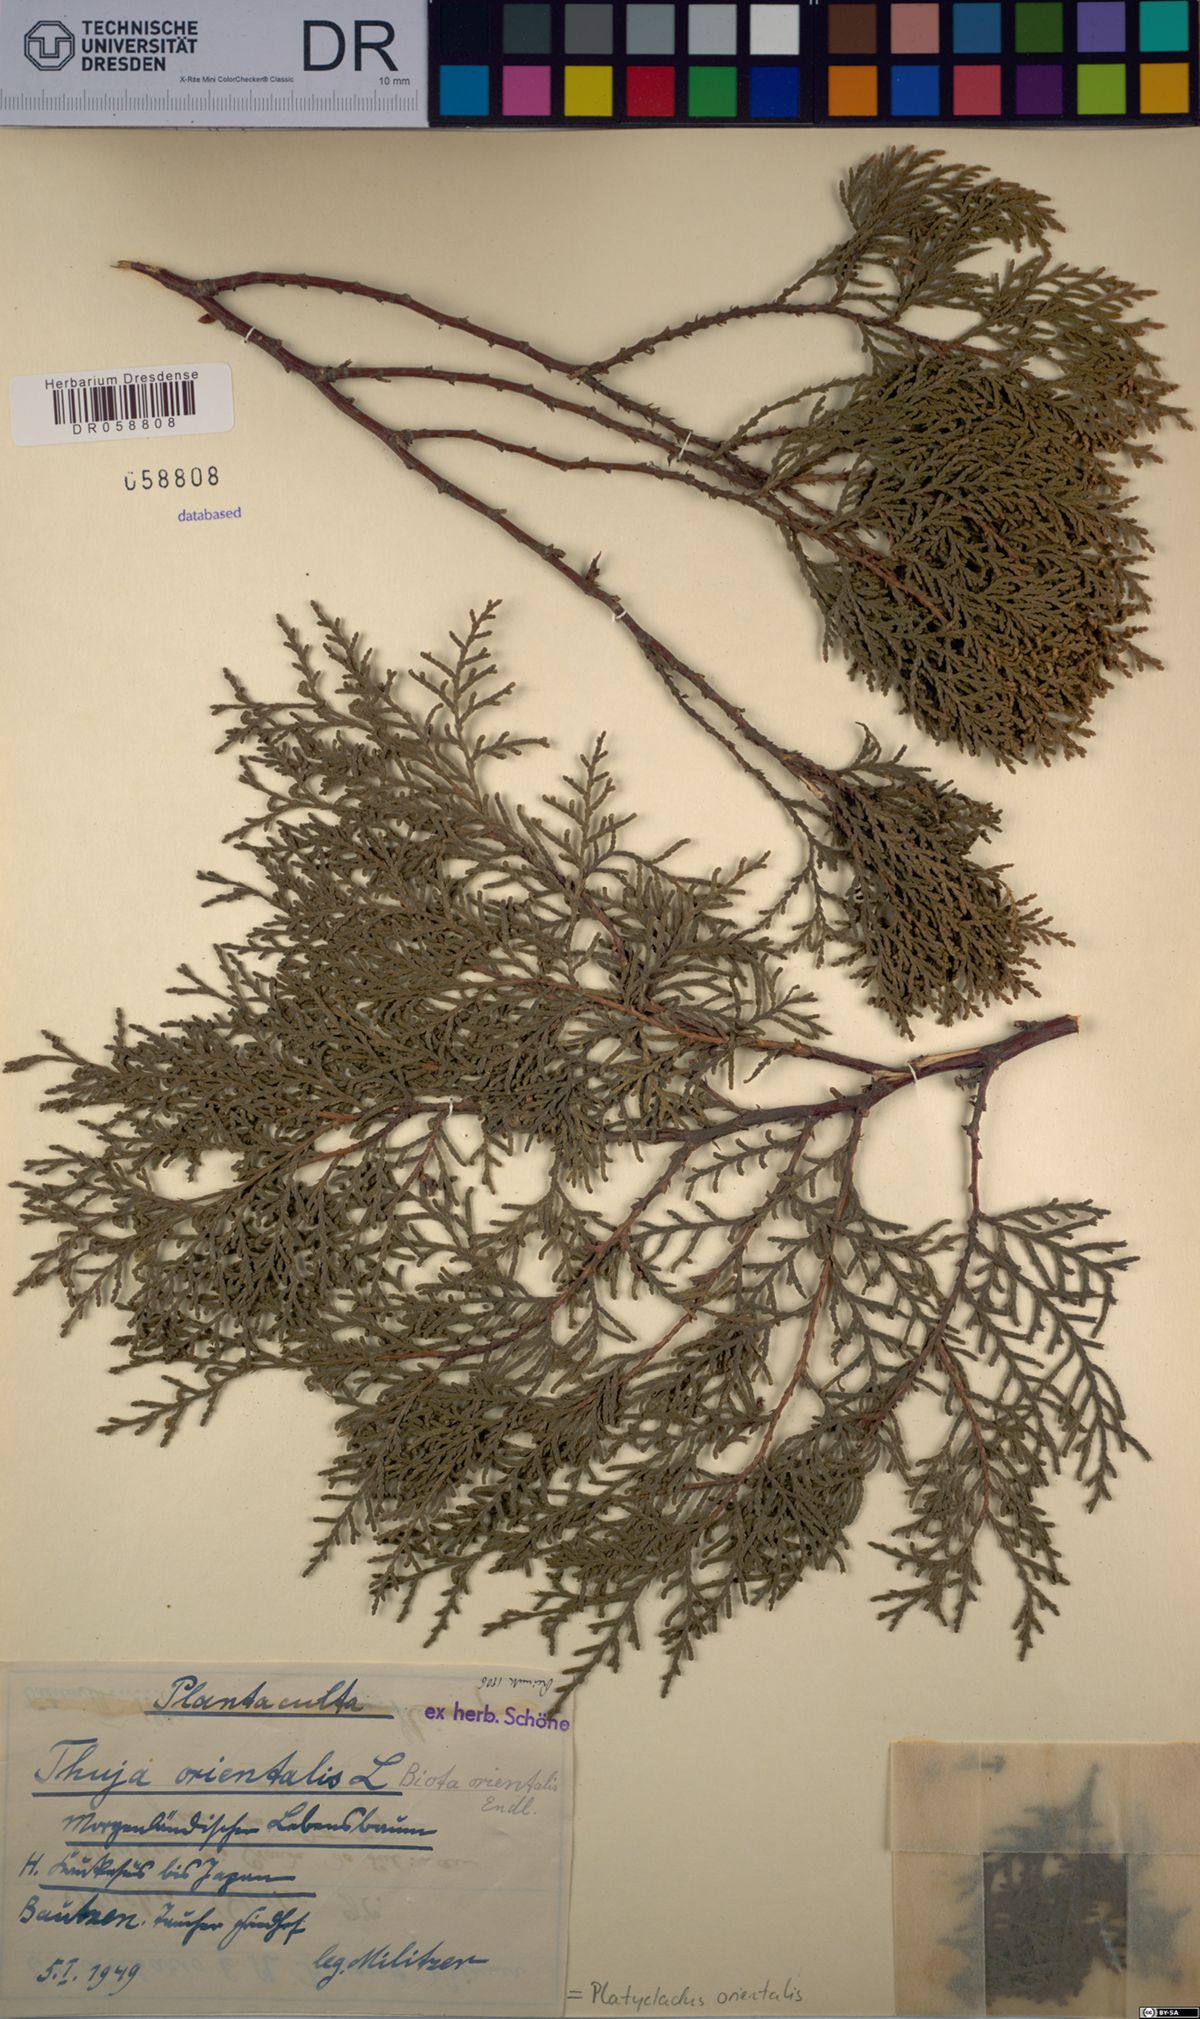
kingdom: Plantae
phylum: Tracheophyta
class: Pinopsida
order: Pinales
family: Cupressaceae
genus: Platycladus
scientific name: Platycladus orientalis
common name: Chinese thuja
